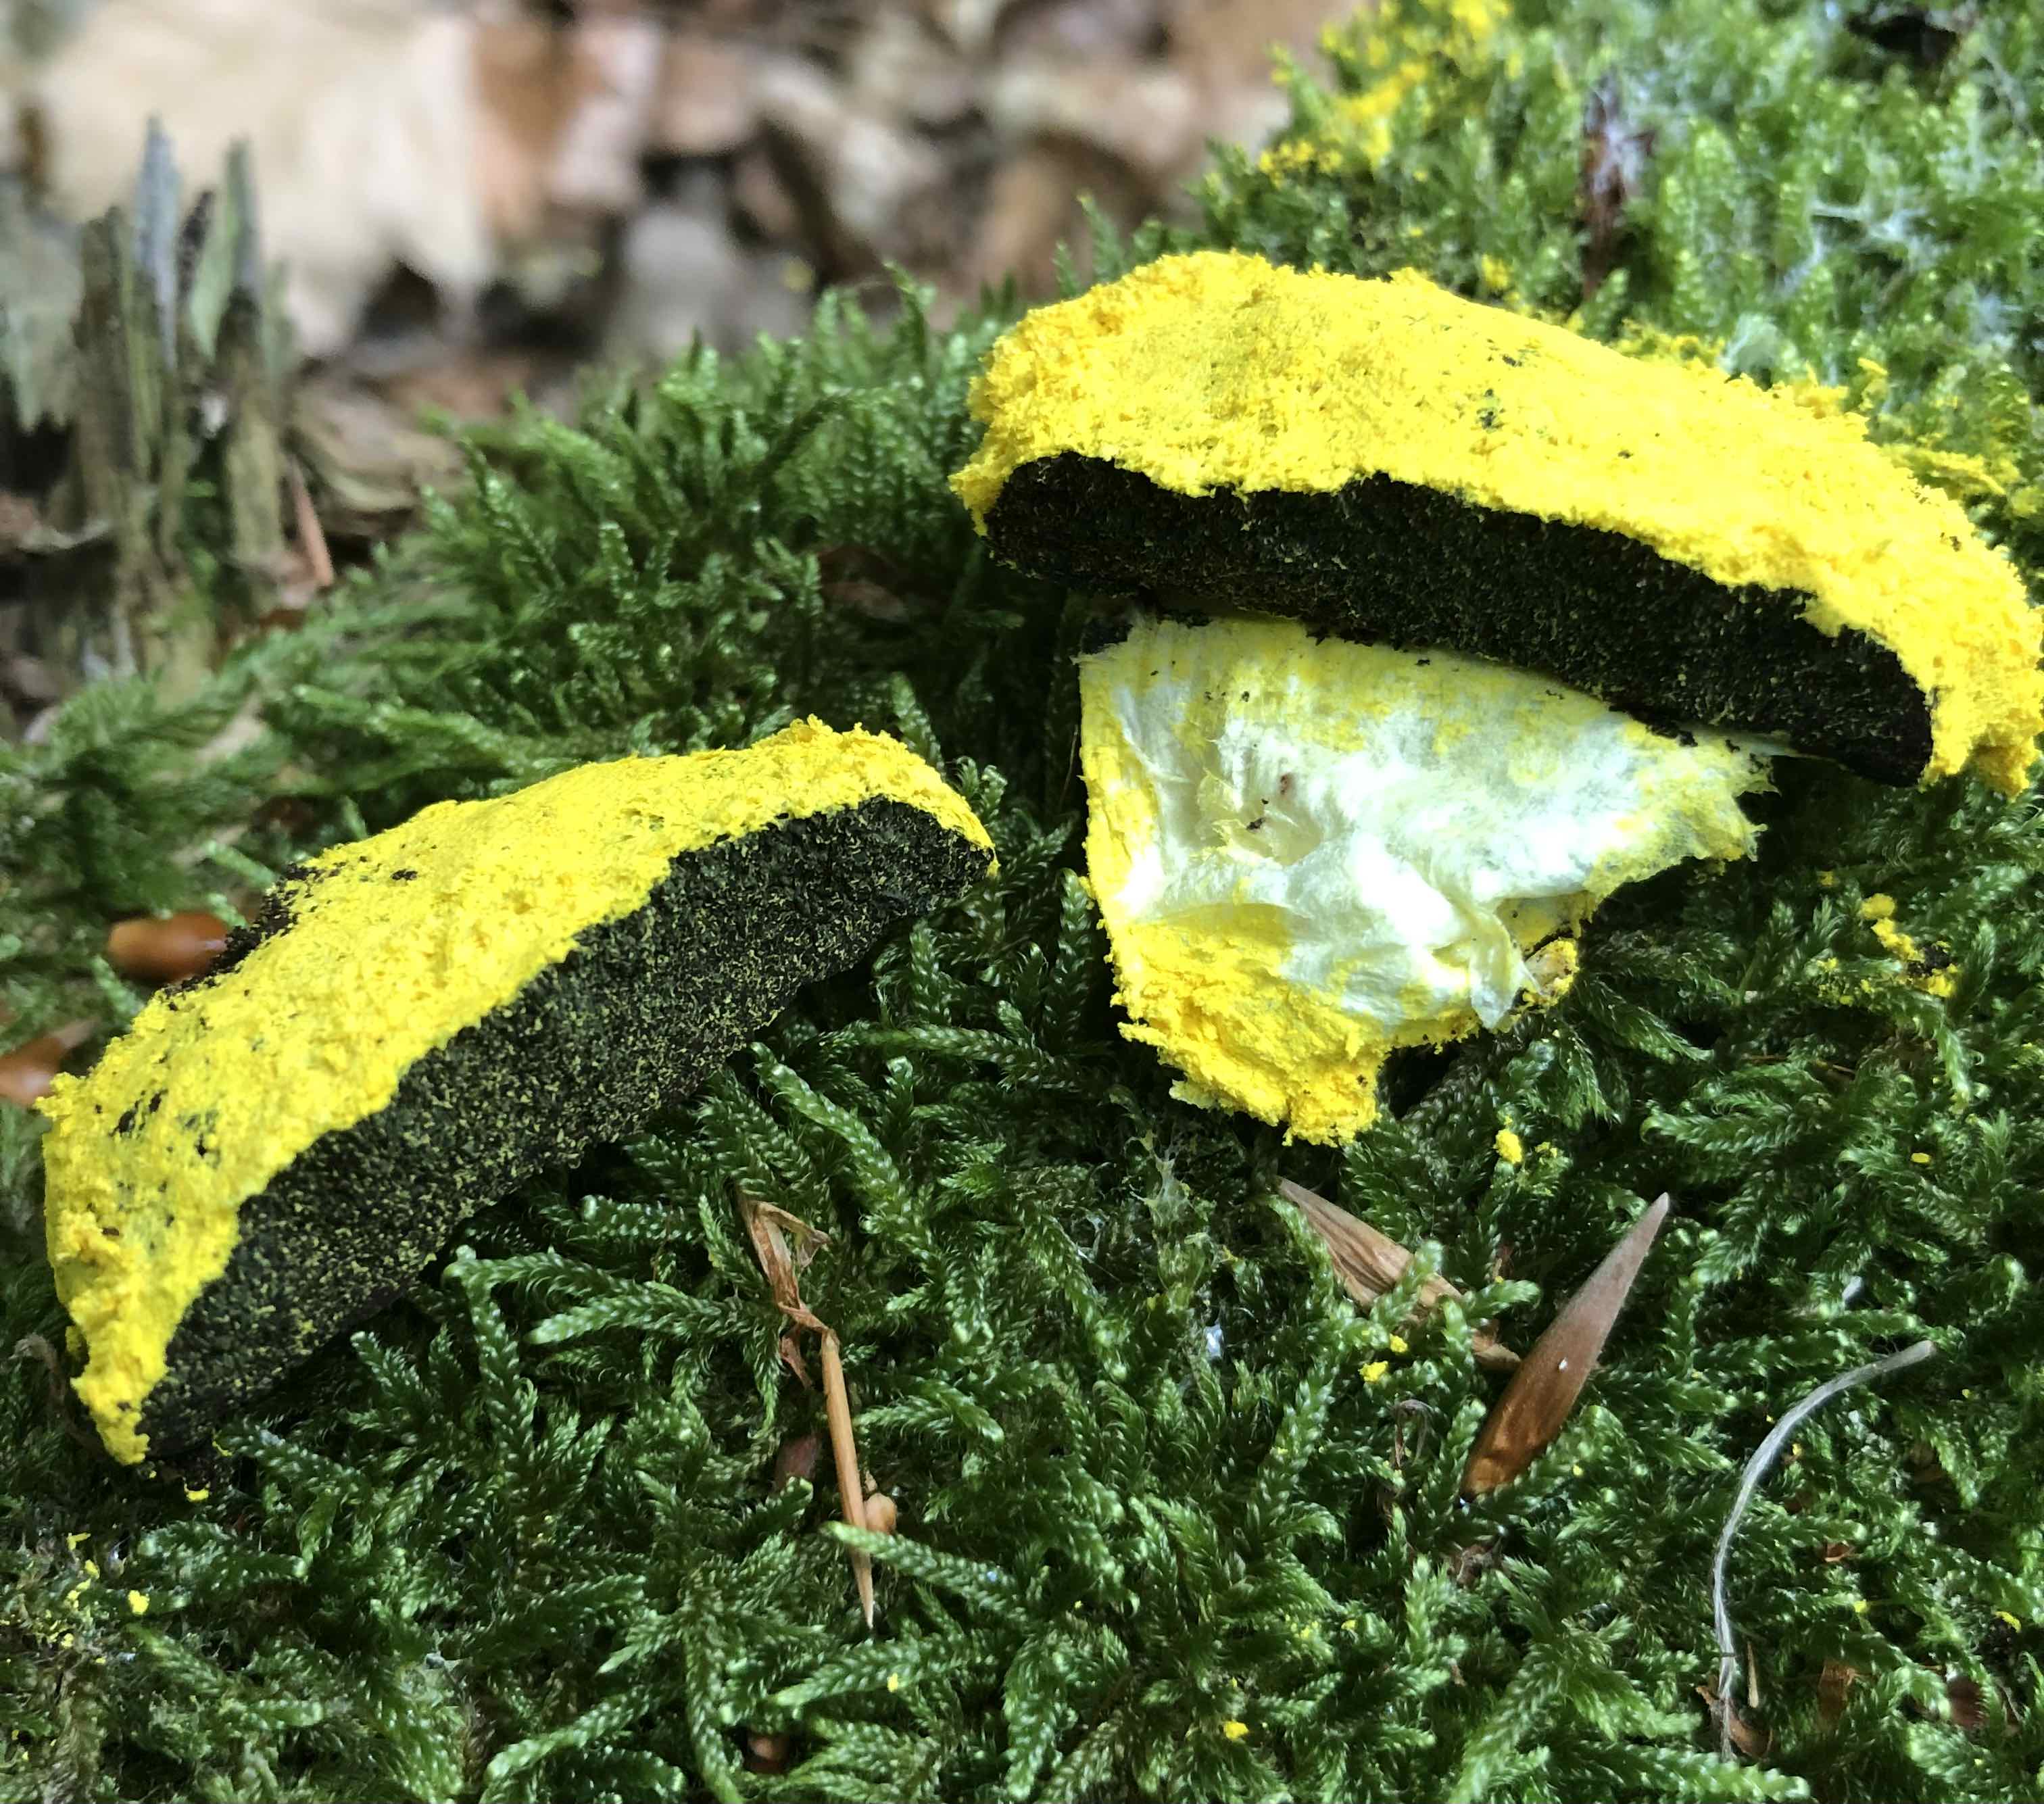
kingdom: Protozoa
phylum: Mycetozoa
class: Myxomycetes
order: Physarales
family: Physaraceae
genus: Fuligo
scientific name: Fuligo septica
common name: gul troldsmør
